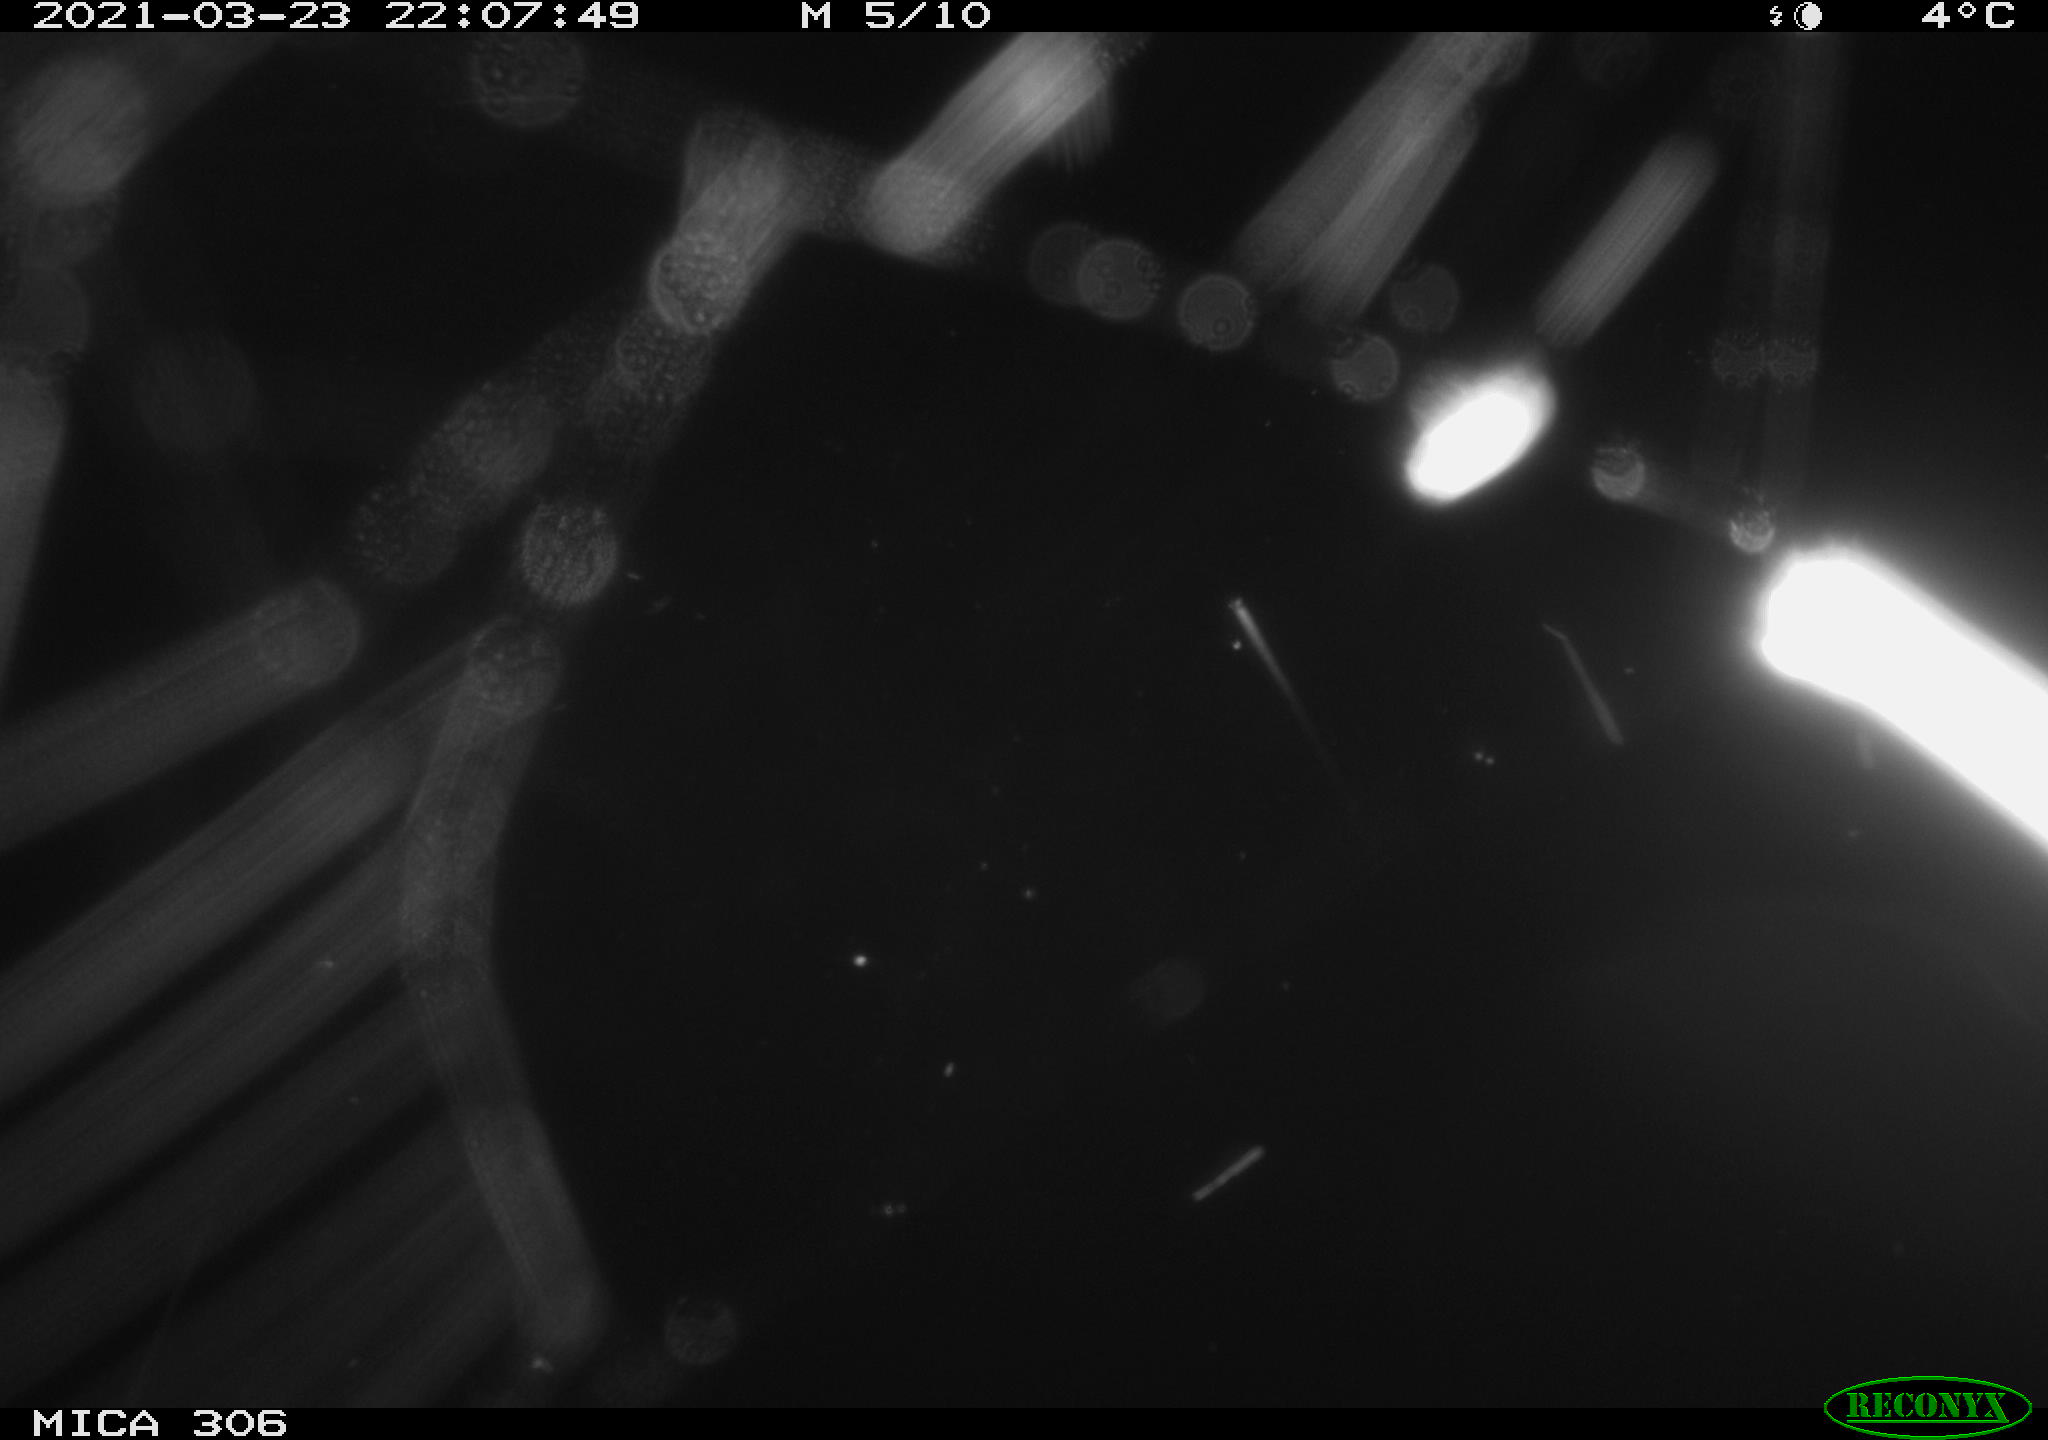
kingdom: Animalia
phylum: Chordata
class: Aves
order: Anseriformes
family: Anatidae
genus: Anas
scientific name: Anas platyrhynchos
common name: Mallard
